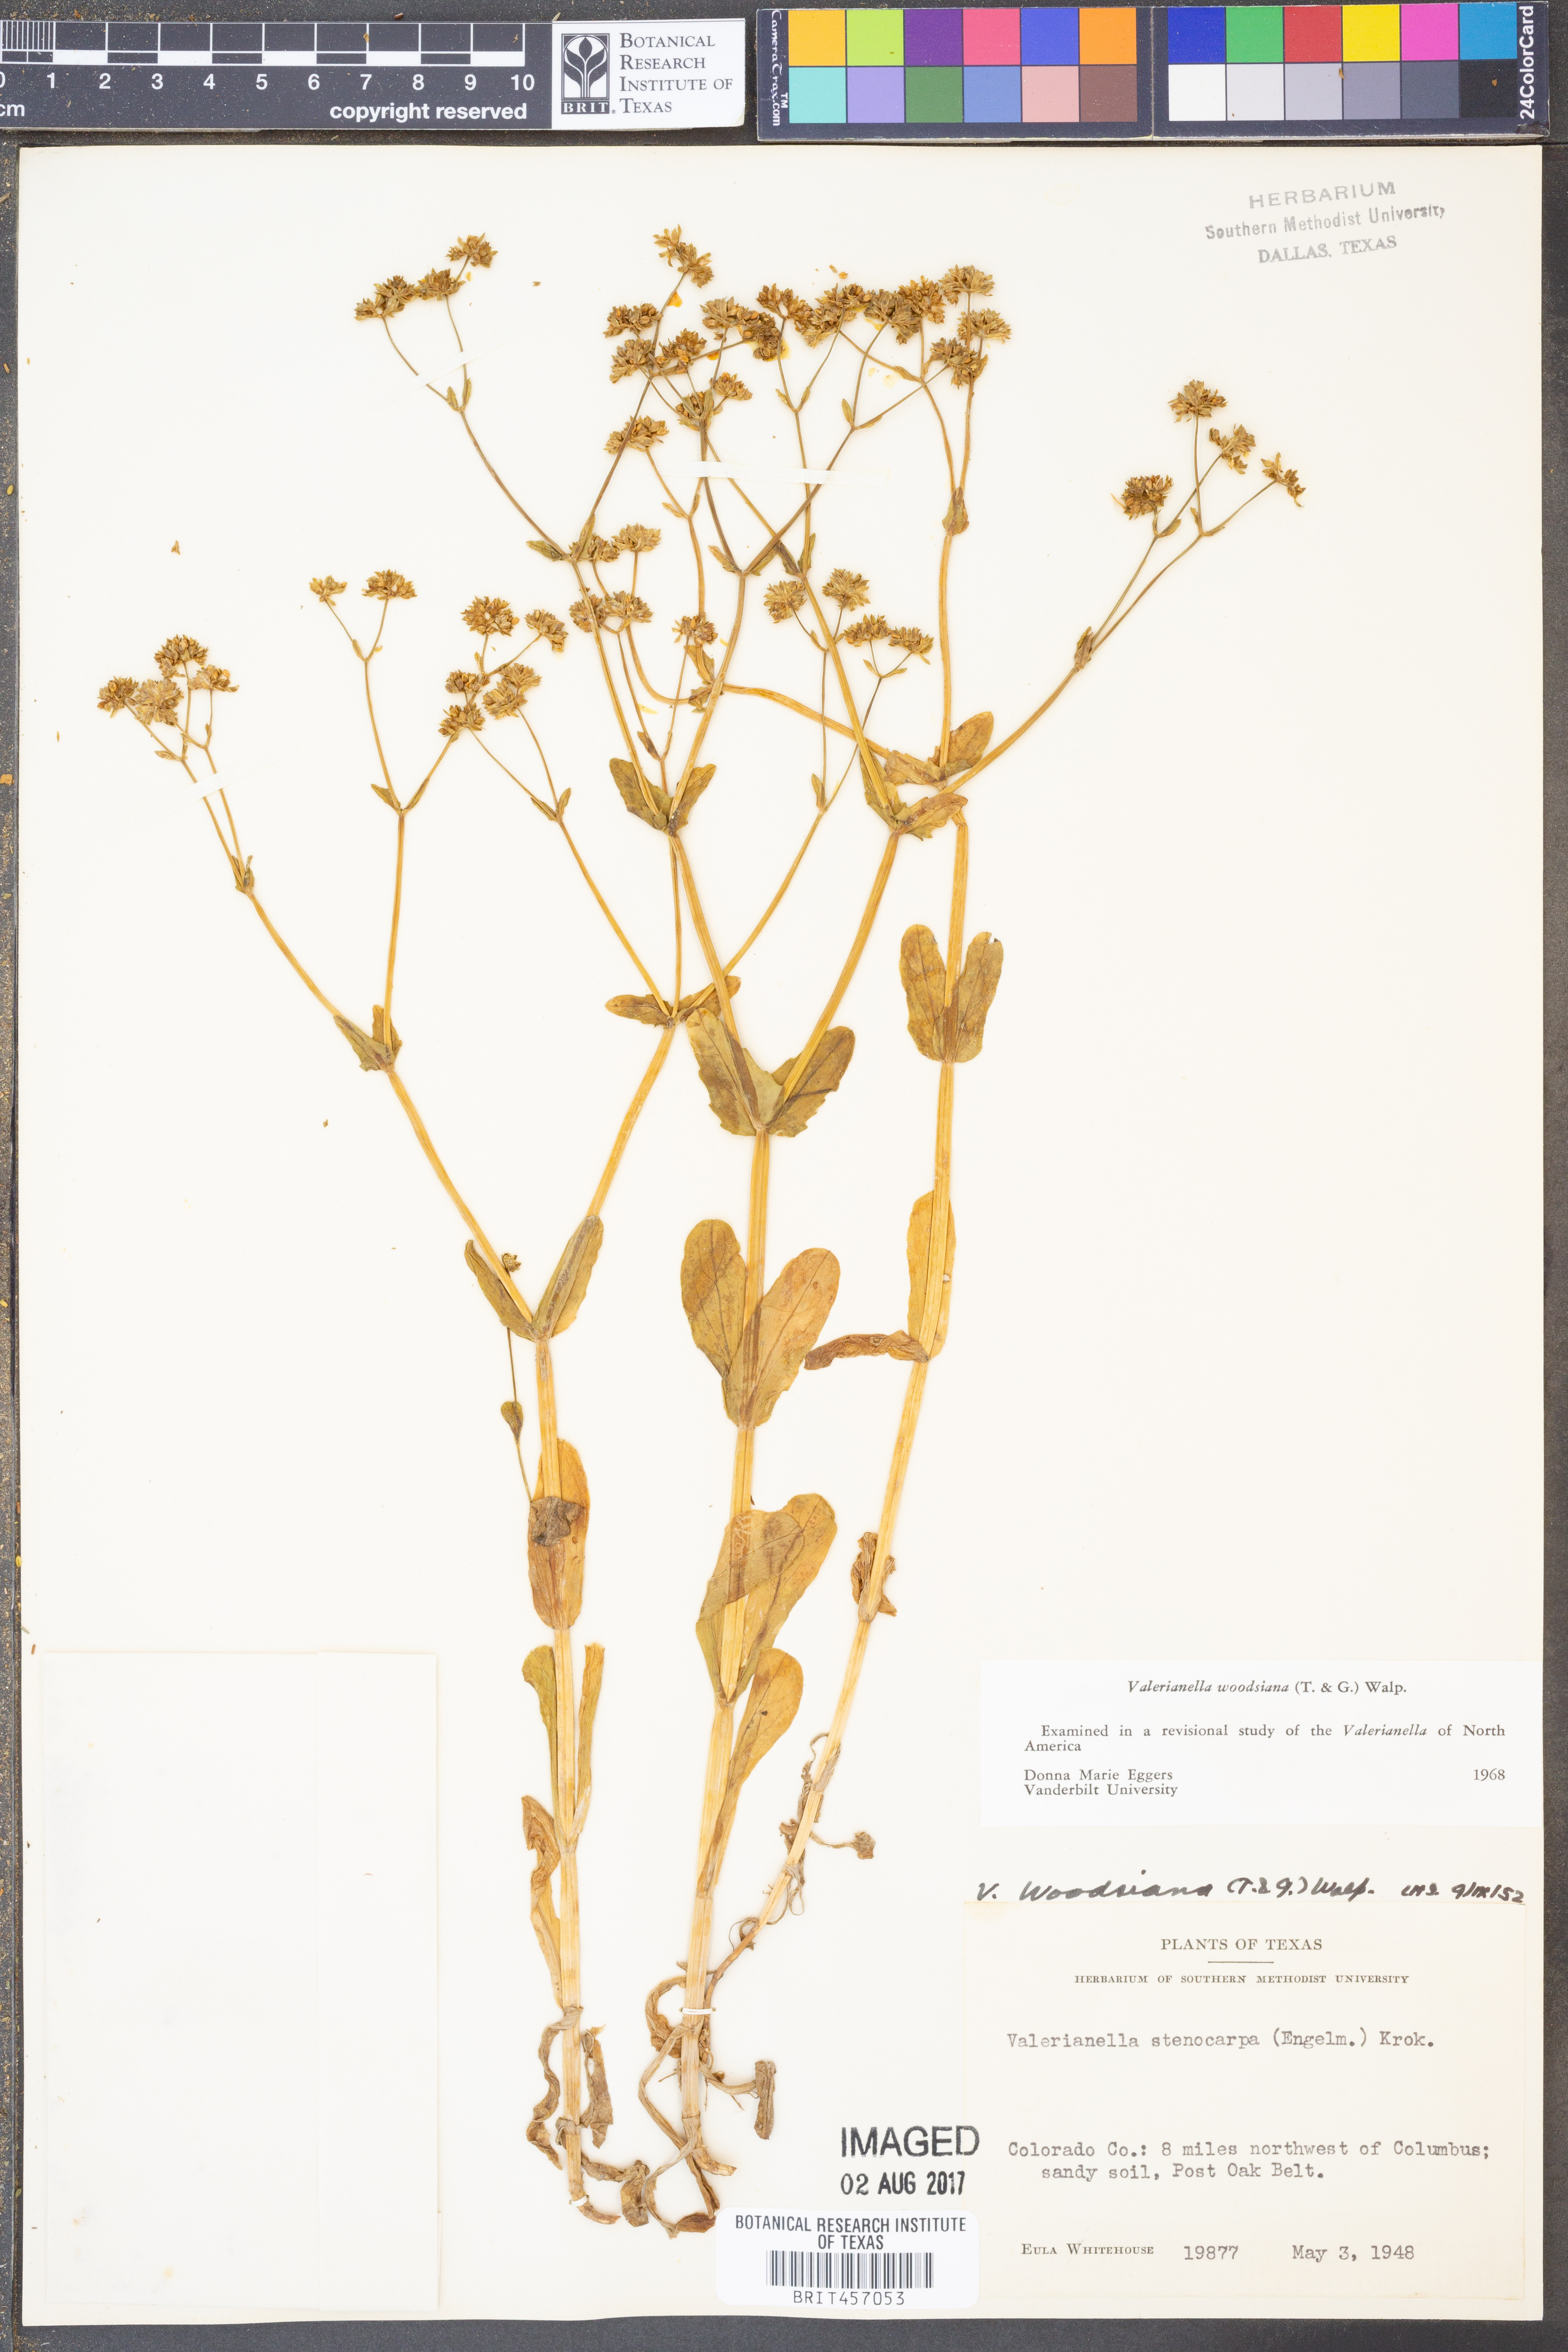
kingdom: Plantae
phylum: Tracheophyta
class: Magnoliopsida
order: Dipsacales
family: Caprifoliaceae
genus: Valerianella
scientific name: Valerianella radiata
